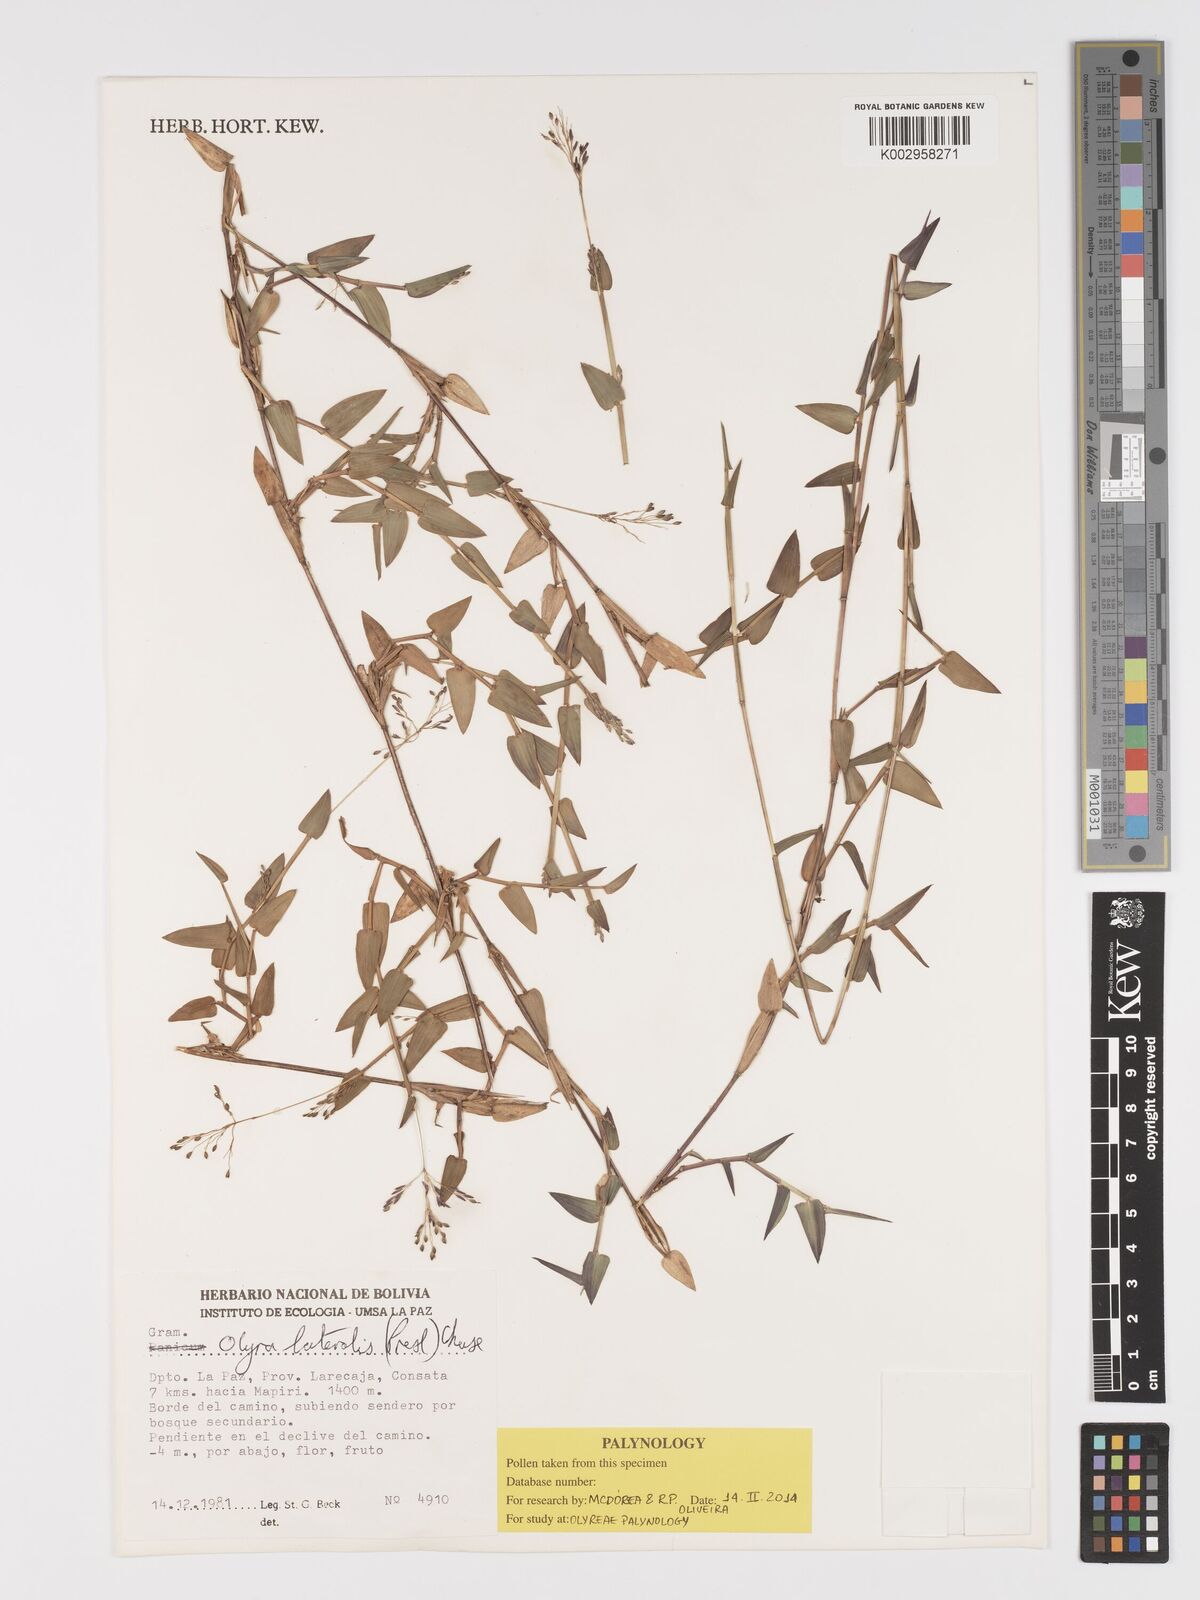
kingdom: Plantae
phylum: Tracheophyta
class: Liliopsida
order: Poales
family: Poaceae
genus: Parodiolyra
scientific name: Parodiolyra lateralis
